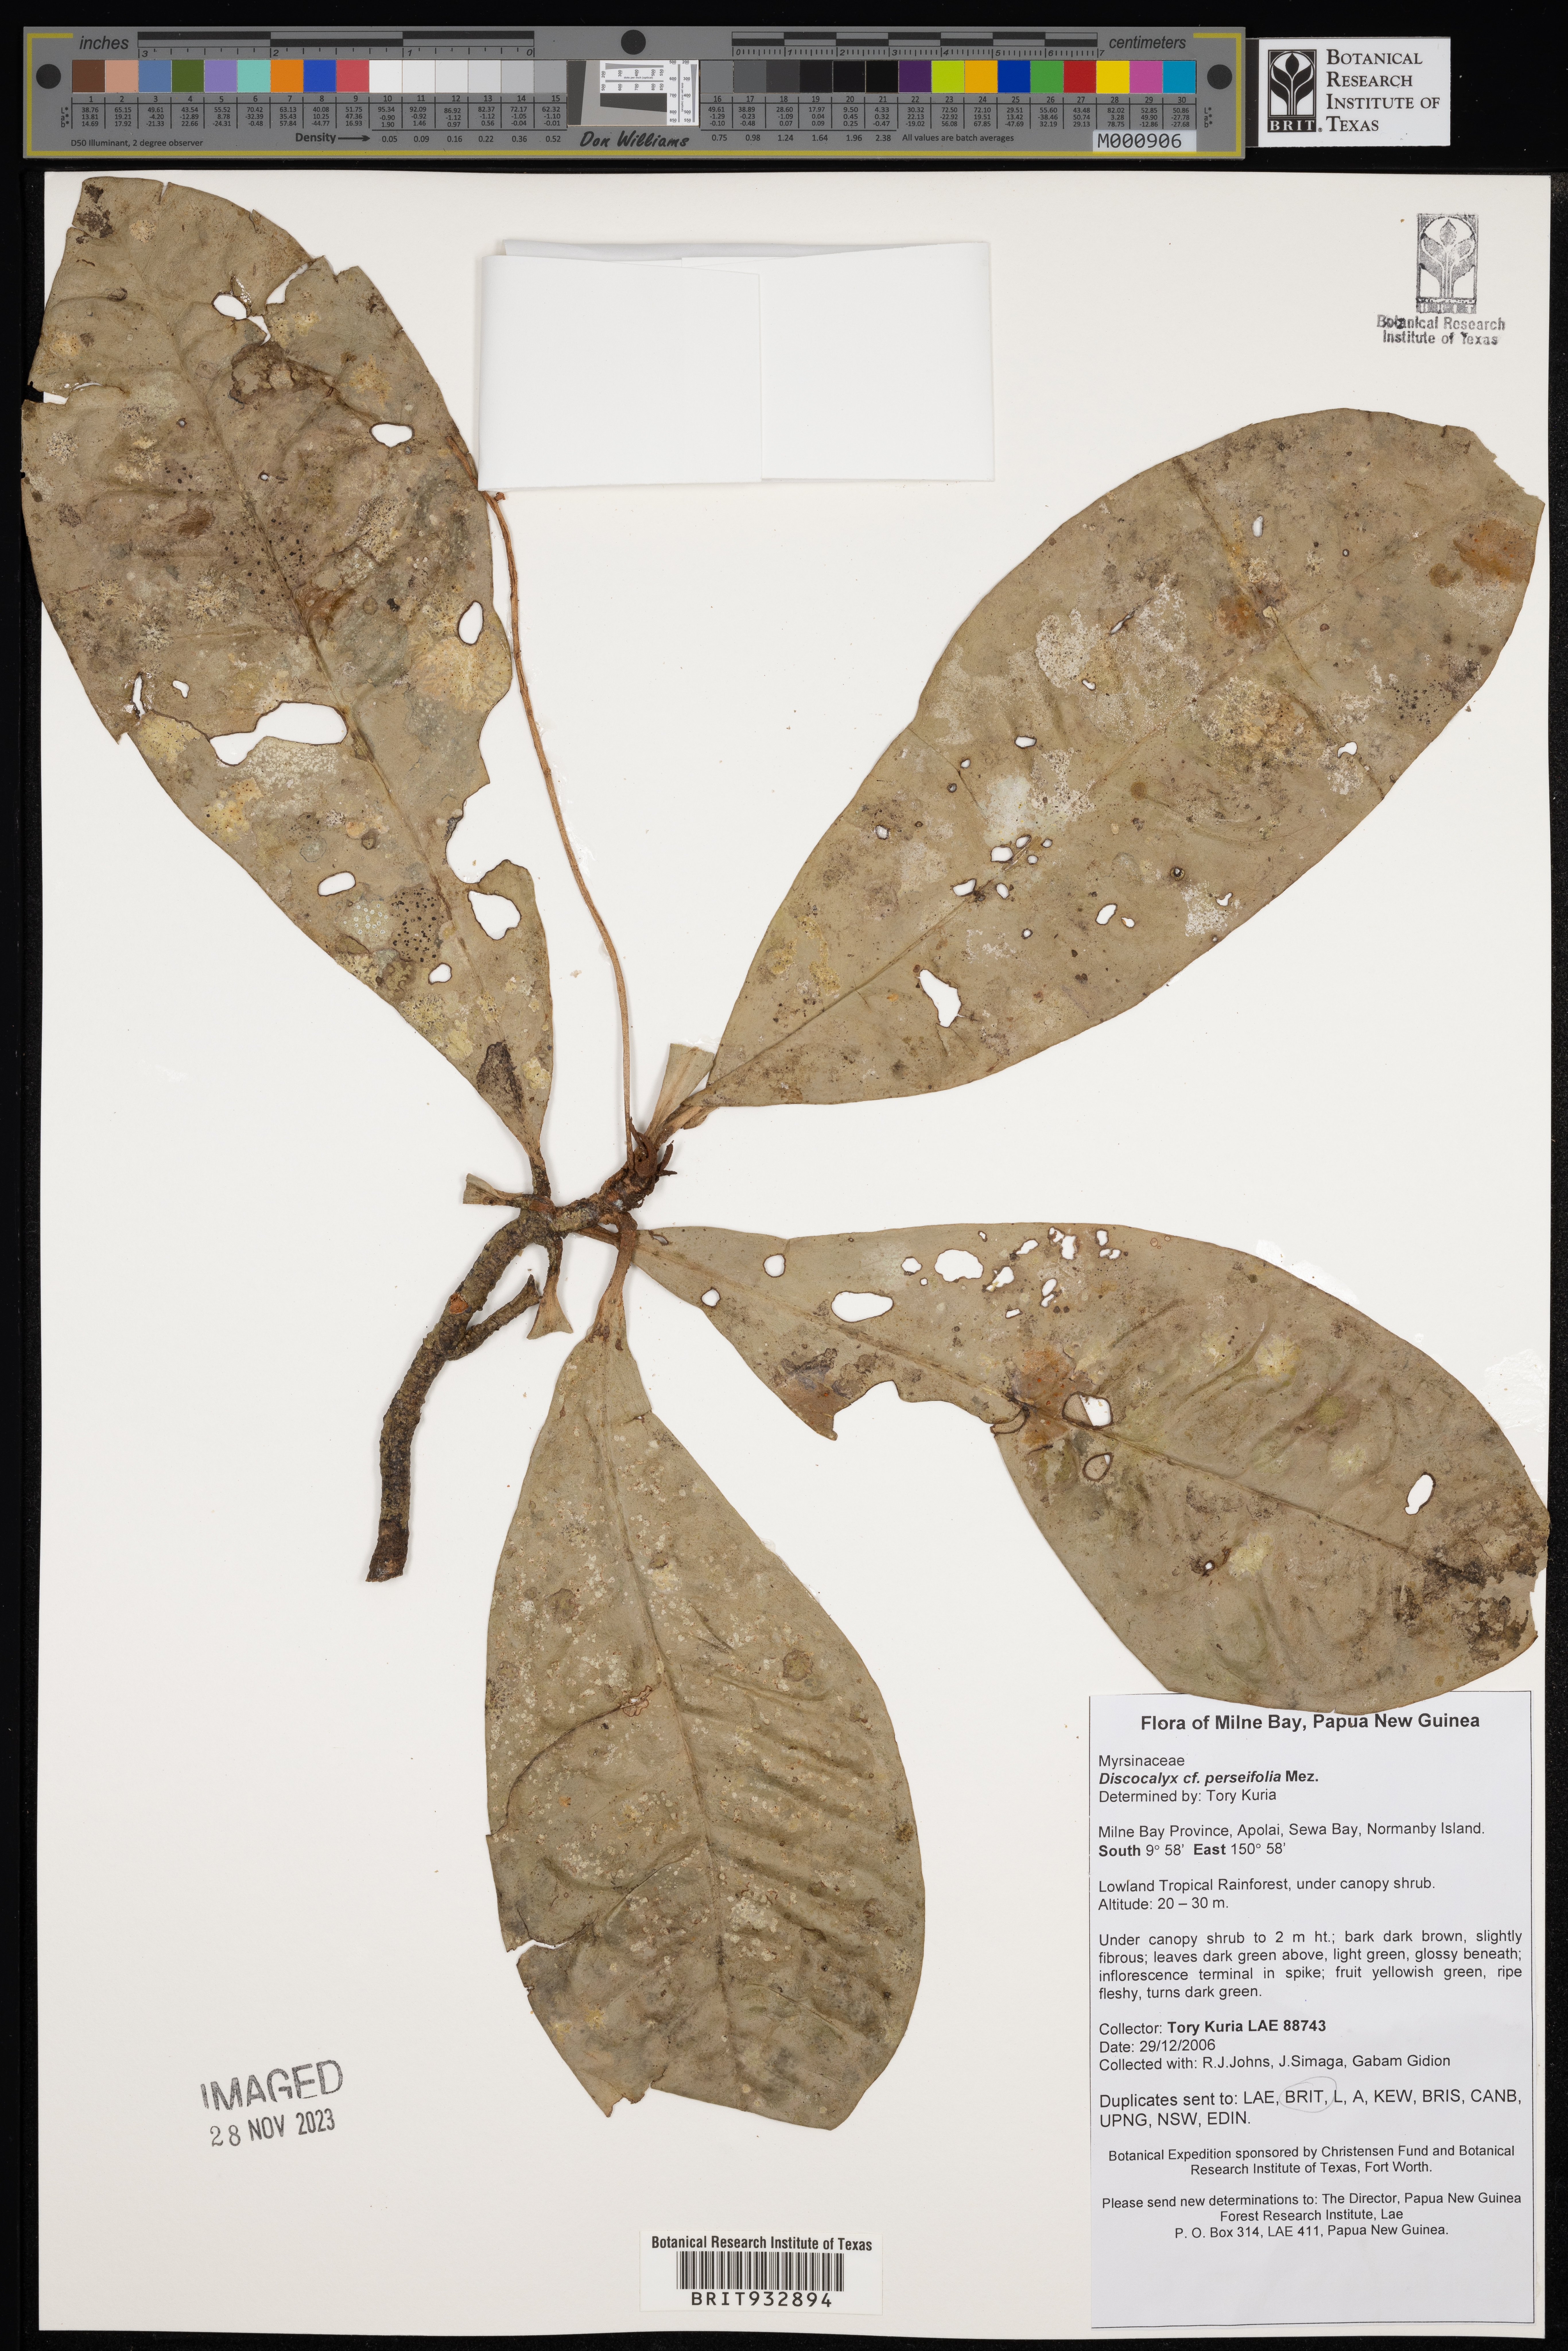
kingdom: Plantae
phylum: Tracheophyta
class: Magnoliopsida
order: Ericales
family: Primulaceae
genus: Discocalyx
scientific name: Discocalyx
